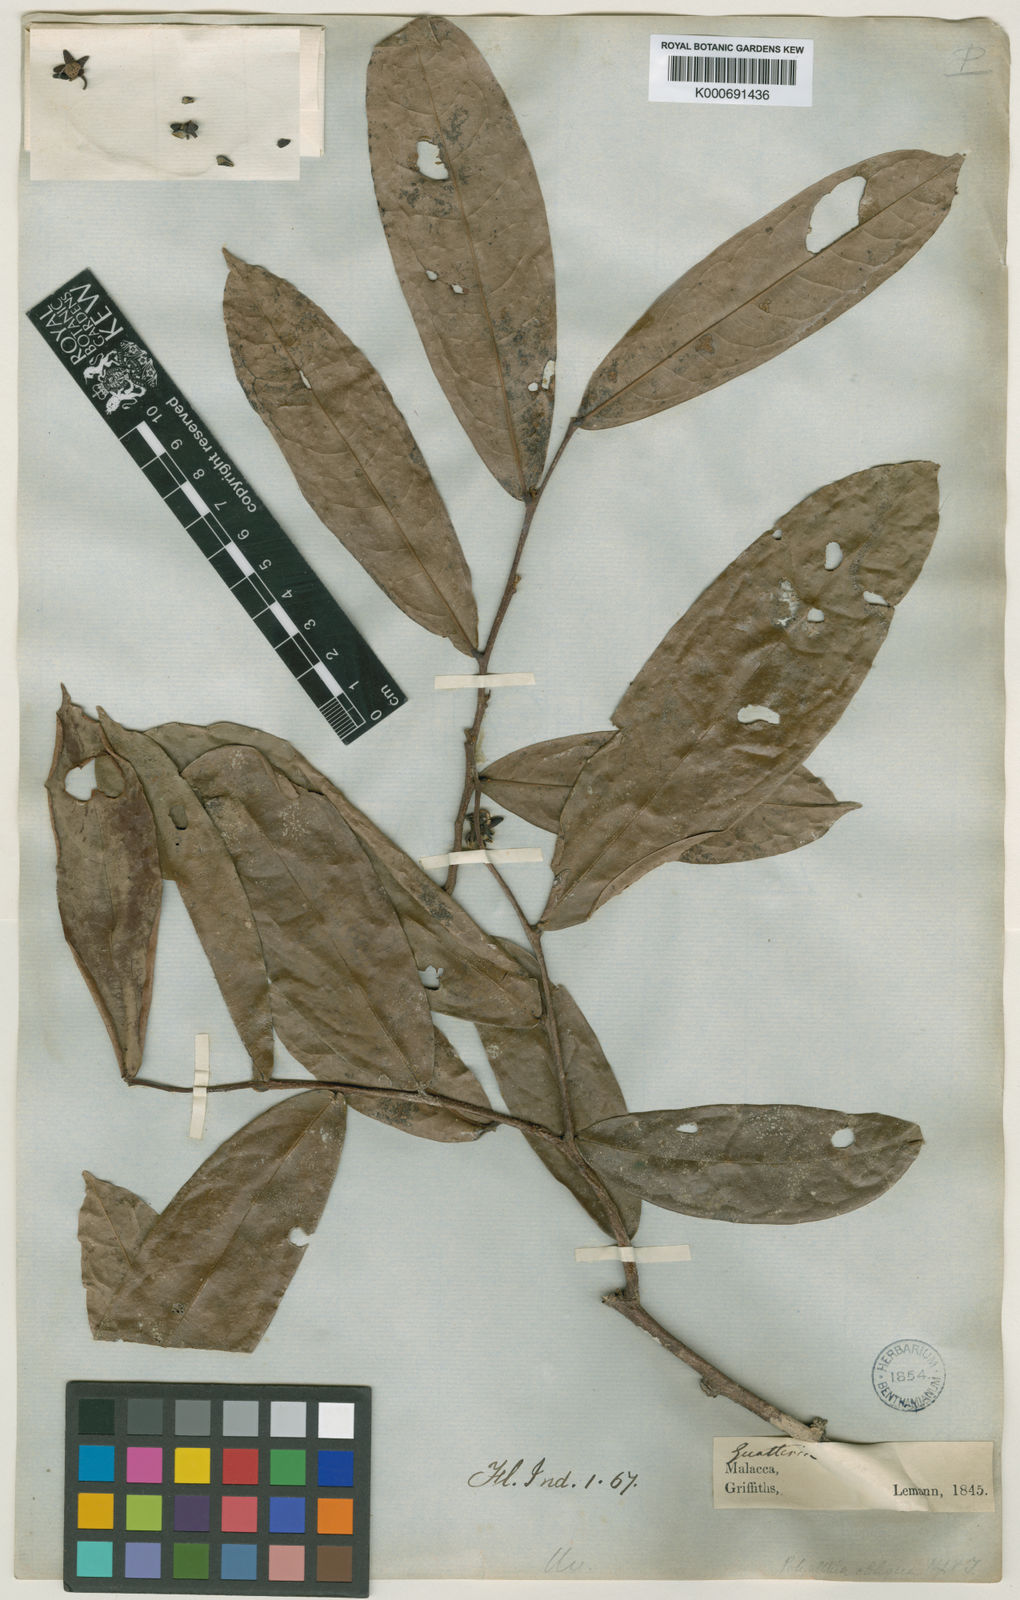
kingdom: Plantae
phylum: Tracheophyta
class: Magnoliopsida
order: Magnoliales
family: Annonaceae
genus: Polyalthia
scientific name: Polyalthia obliqua
